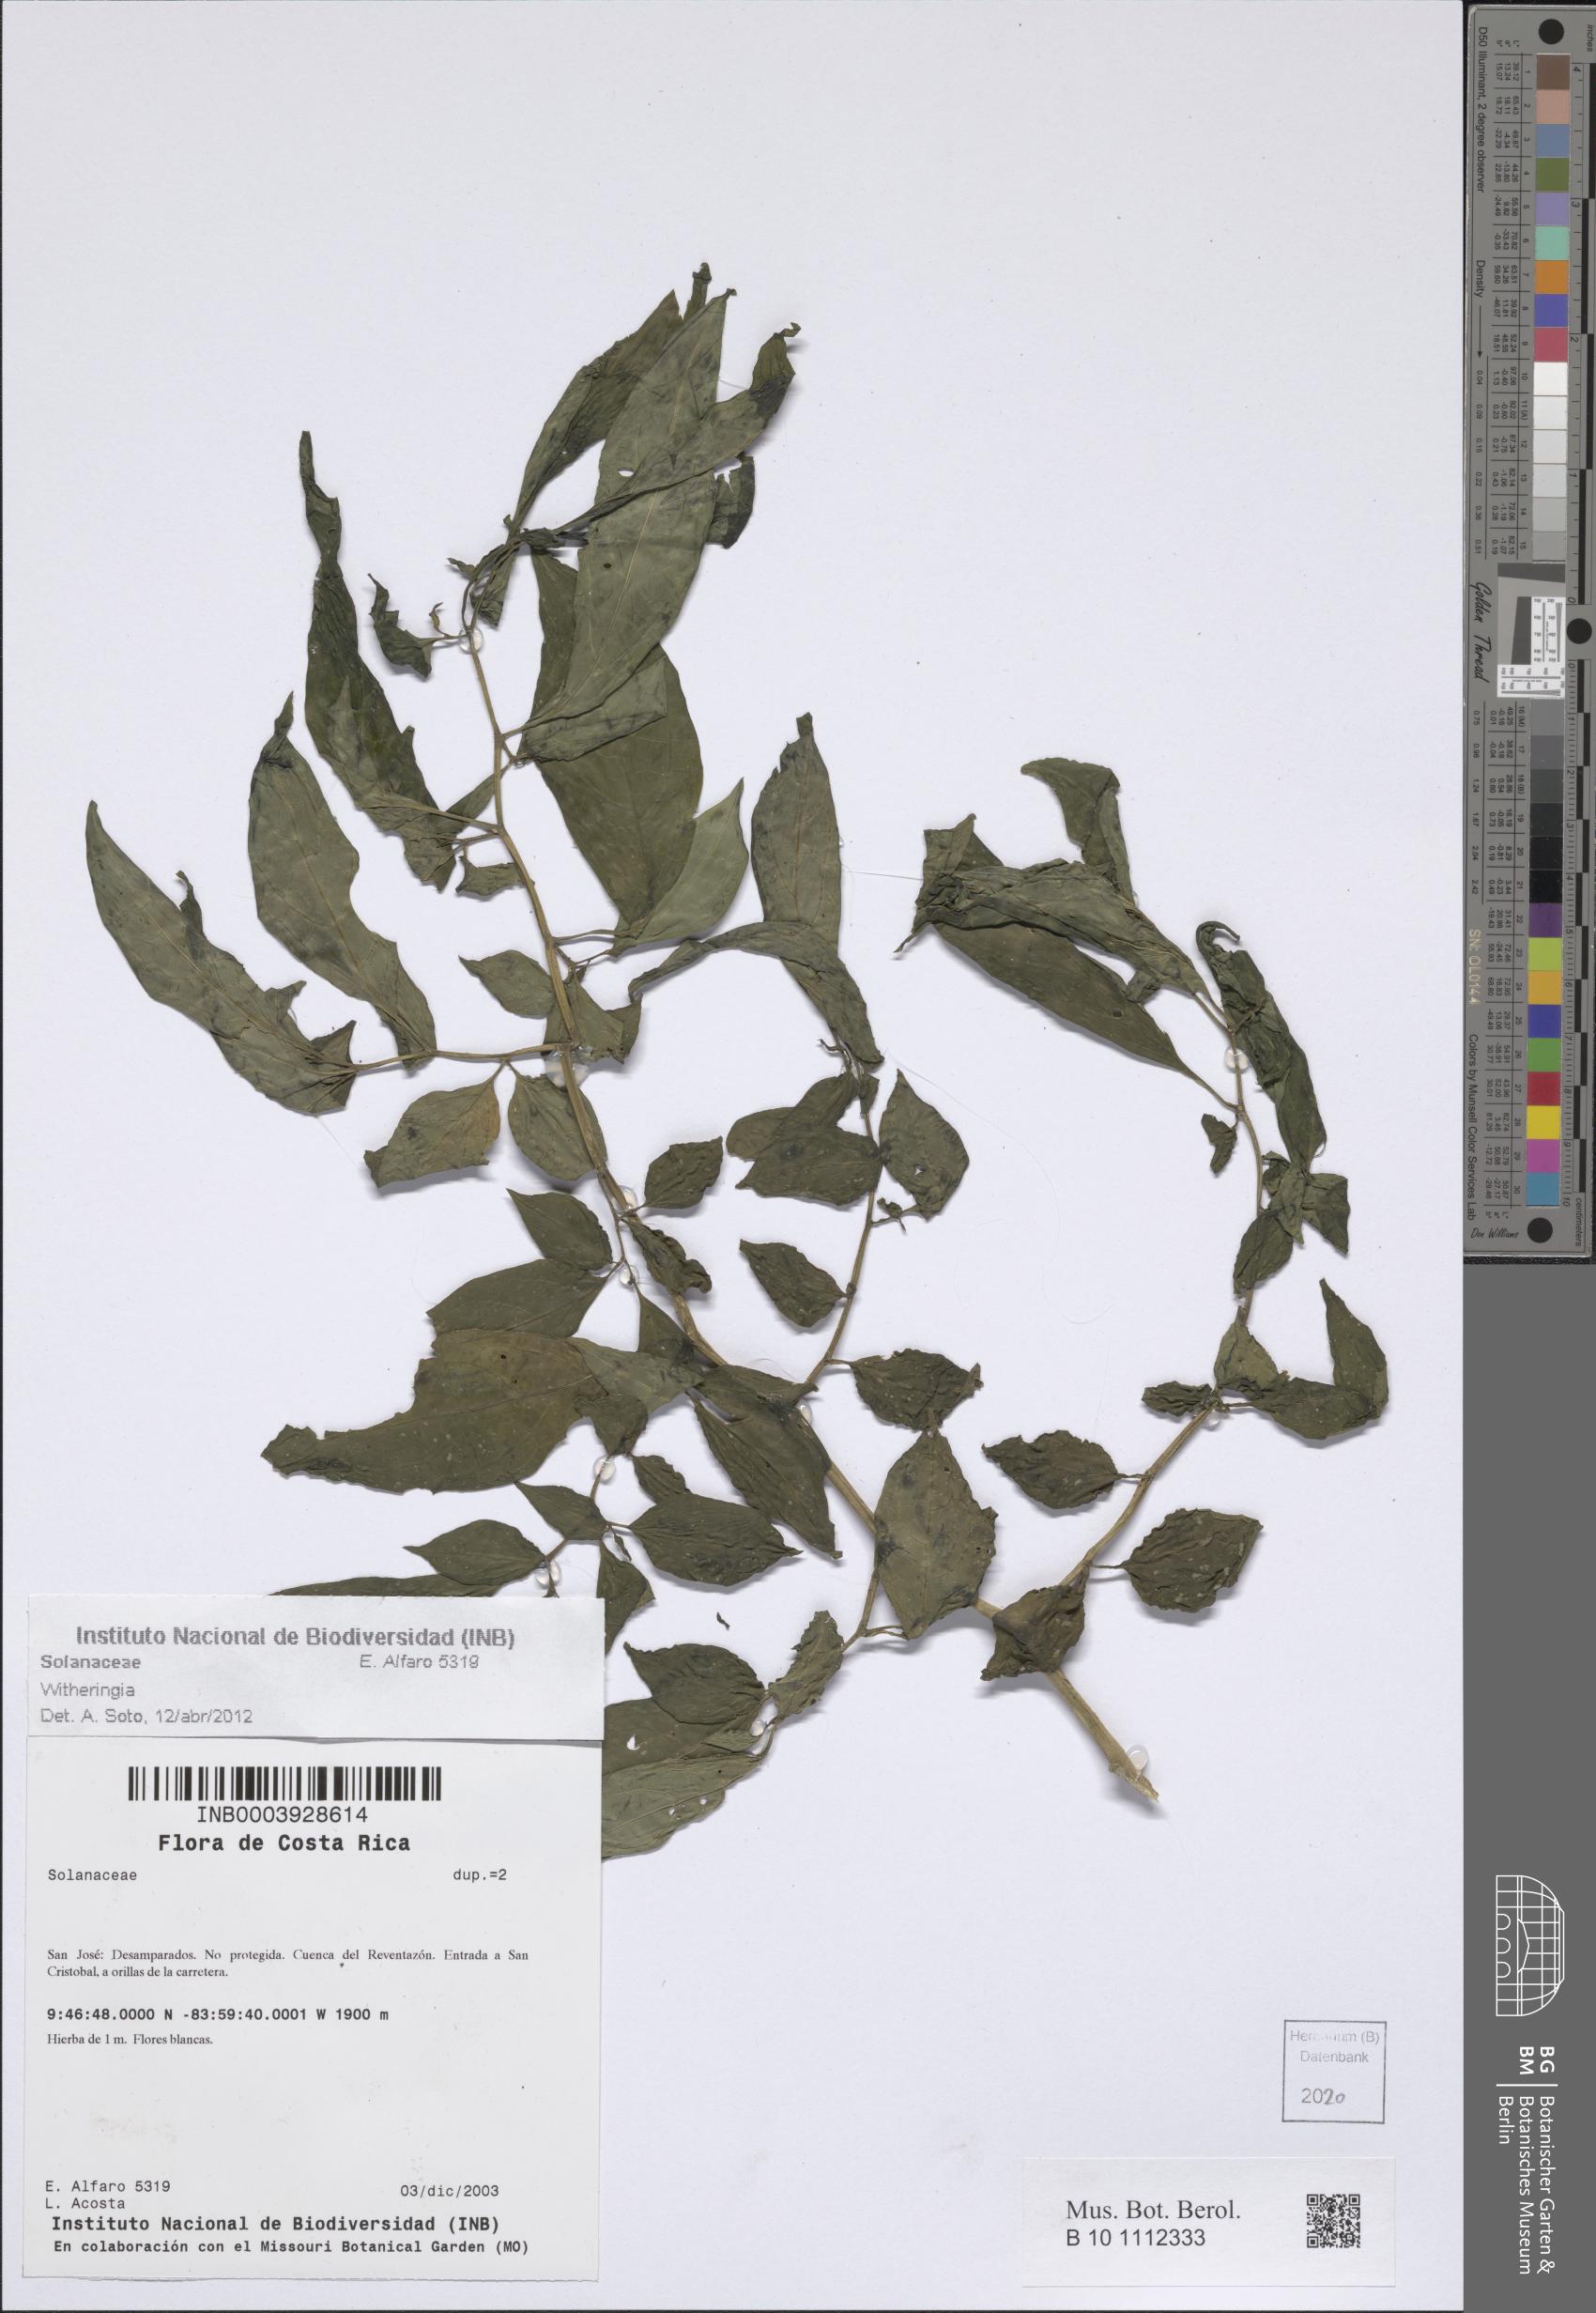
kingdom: Plantae
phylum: Tracheophyta
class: Magnoliopsida
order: Solanales
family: Solanaceae
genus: Witheringia
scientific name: Witheringia
